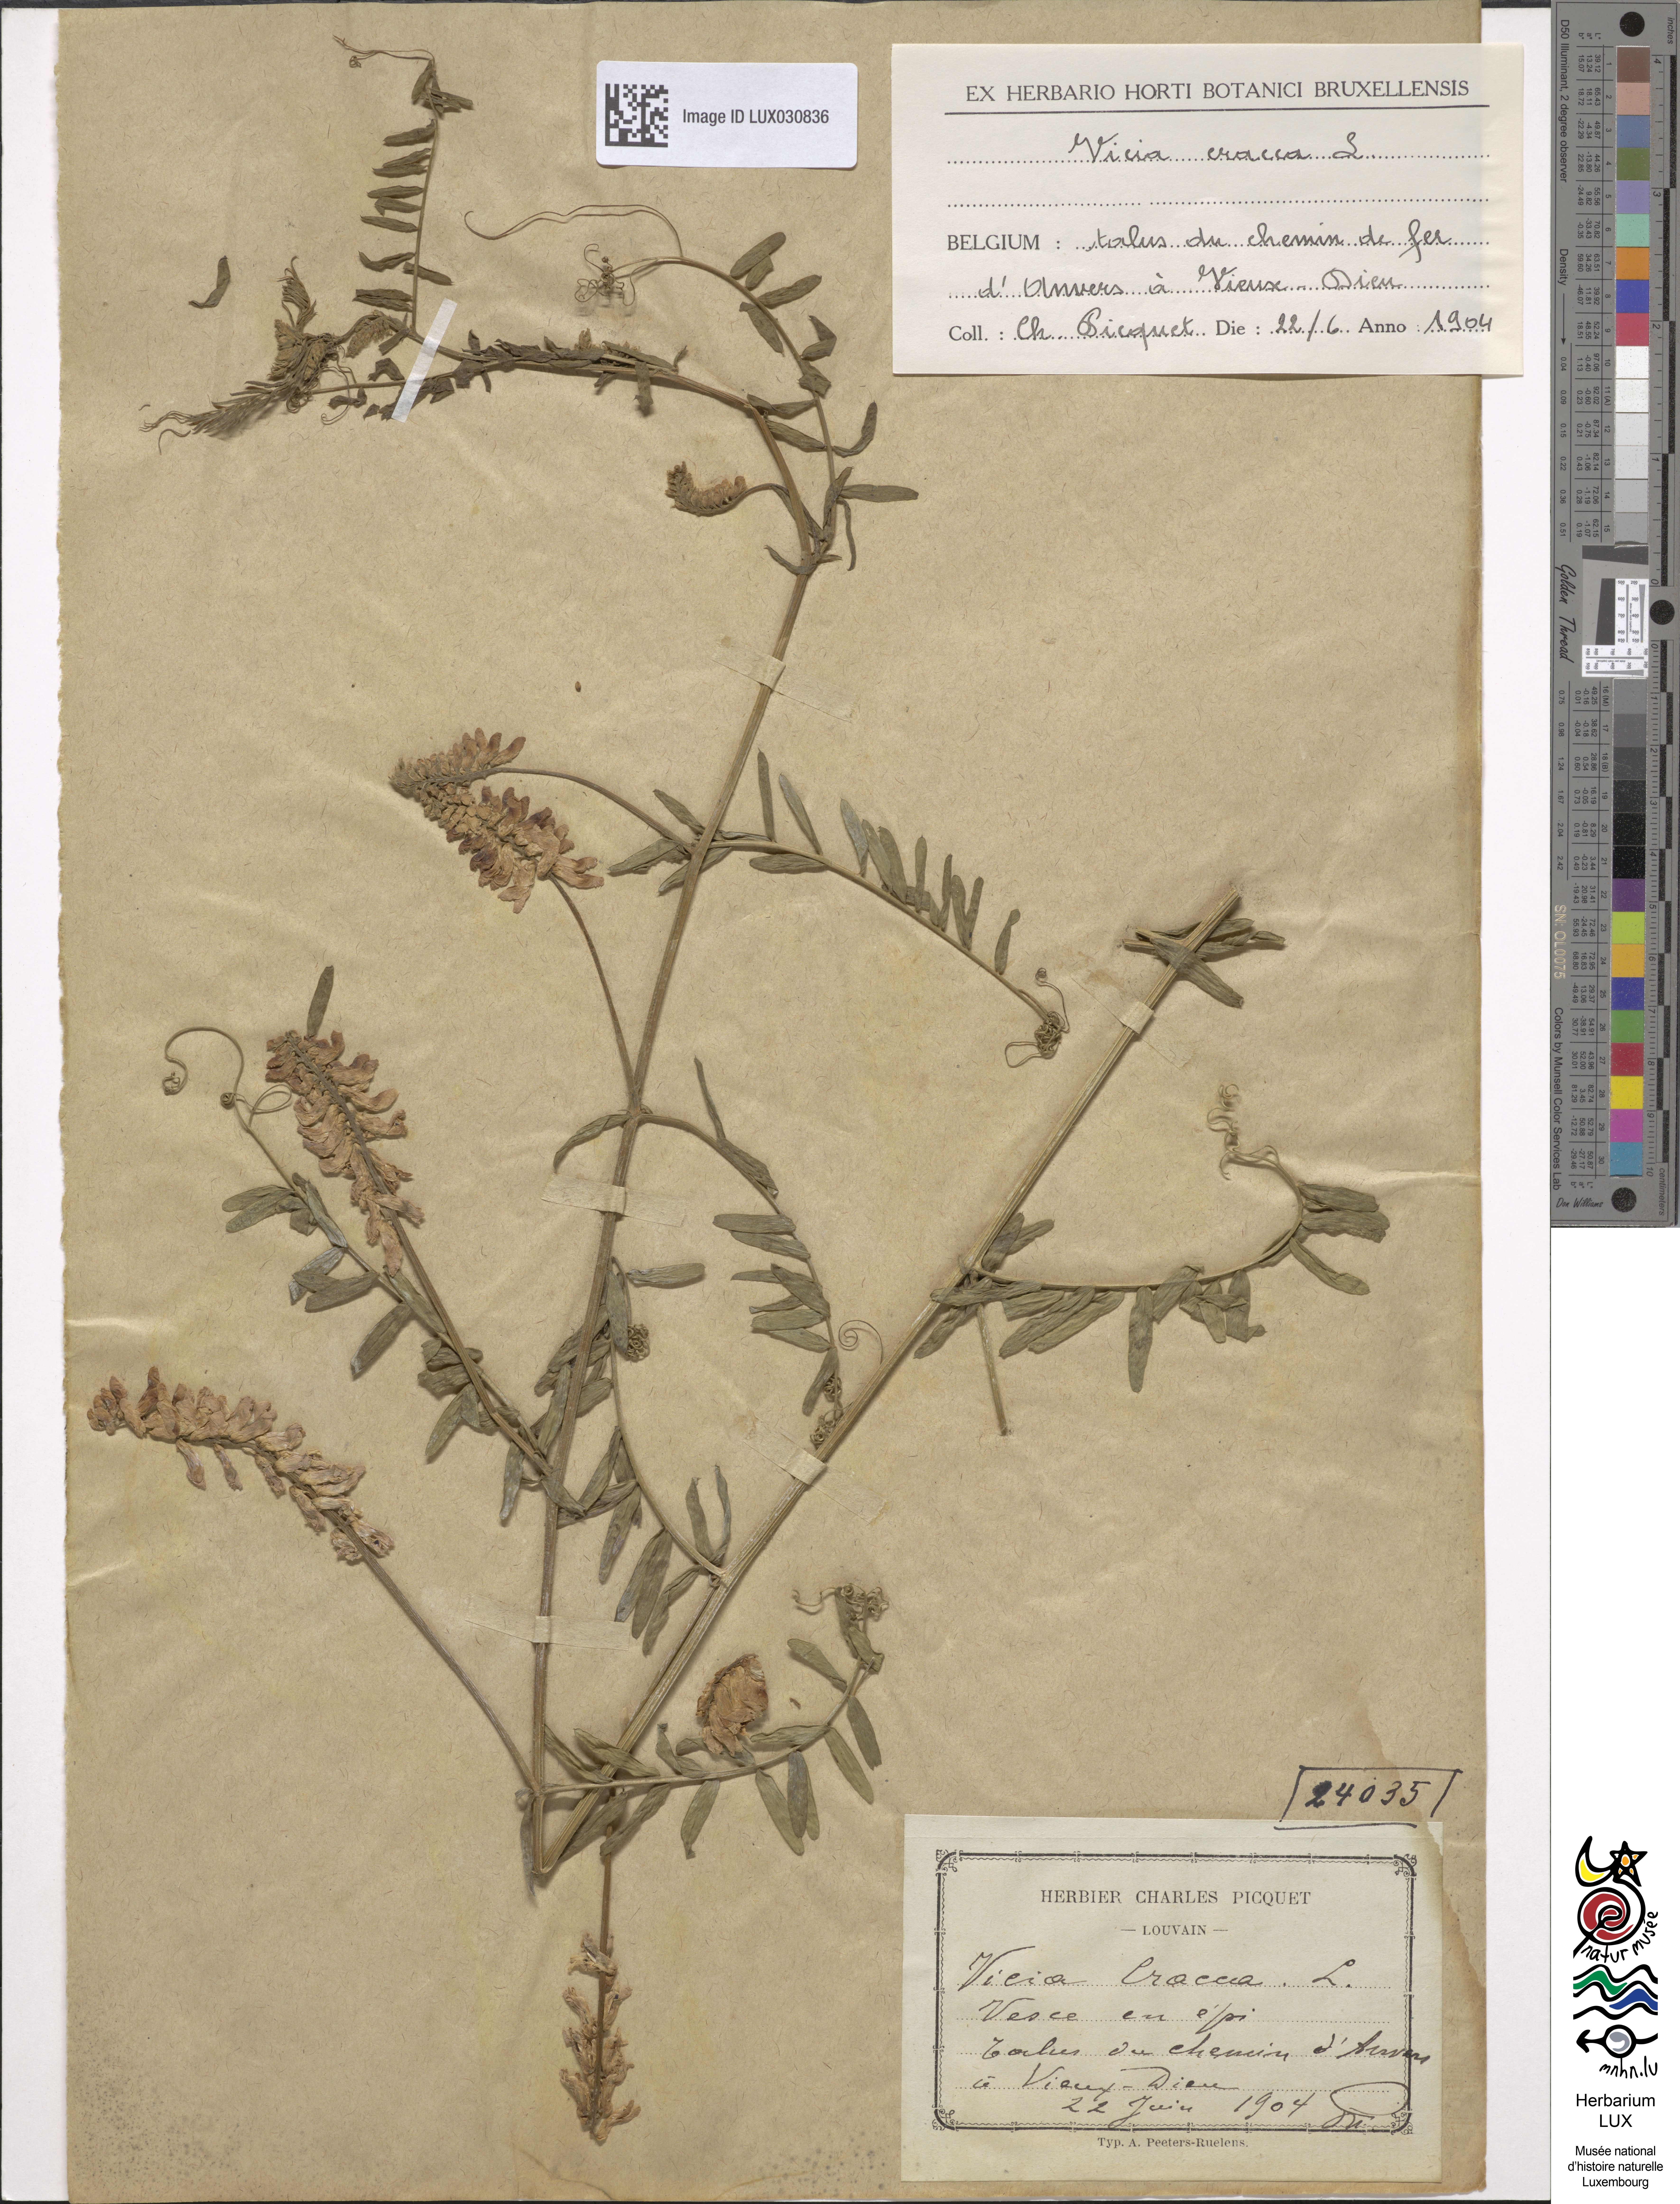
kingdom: Plantae
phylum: Tracheophyta
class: Magnoliopsida
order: Fabales
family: Fabaceae
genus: Vicia
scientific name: Vicia cracca
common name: Bird vetch
